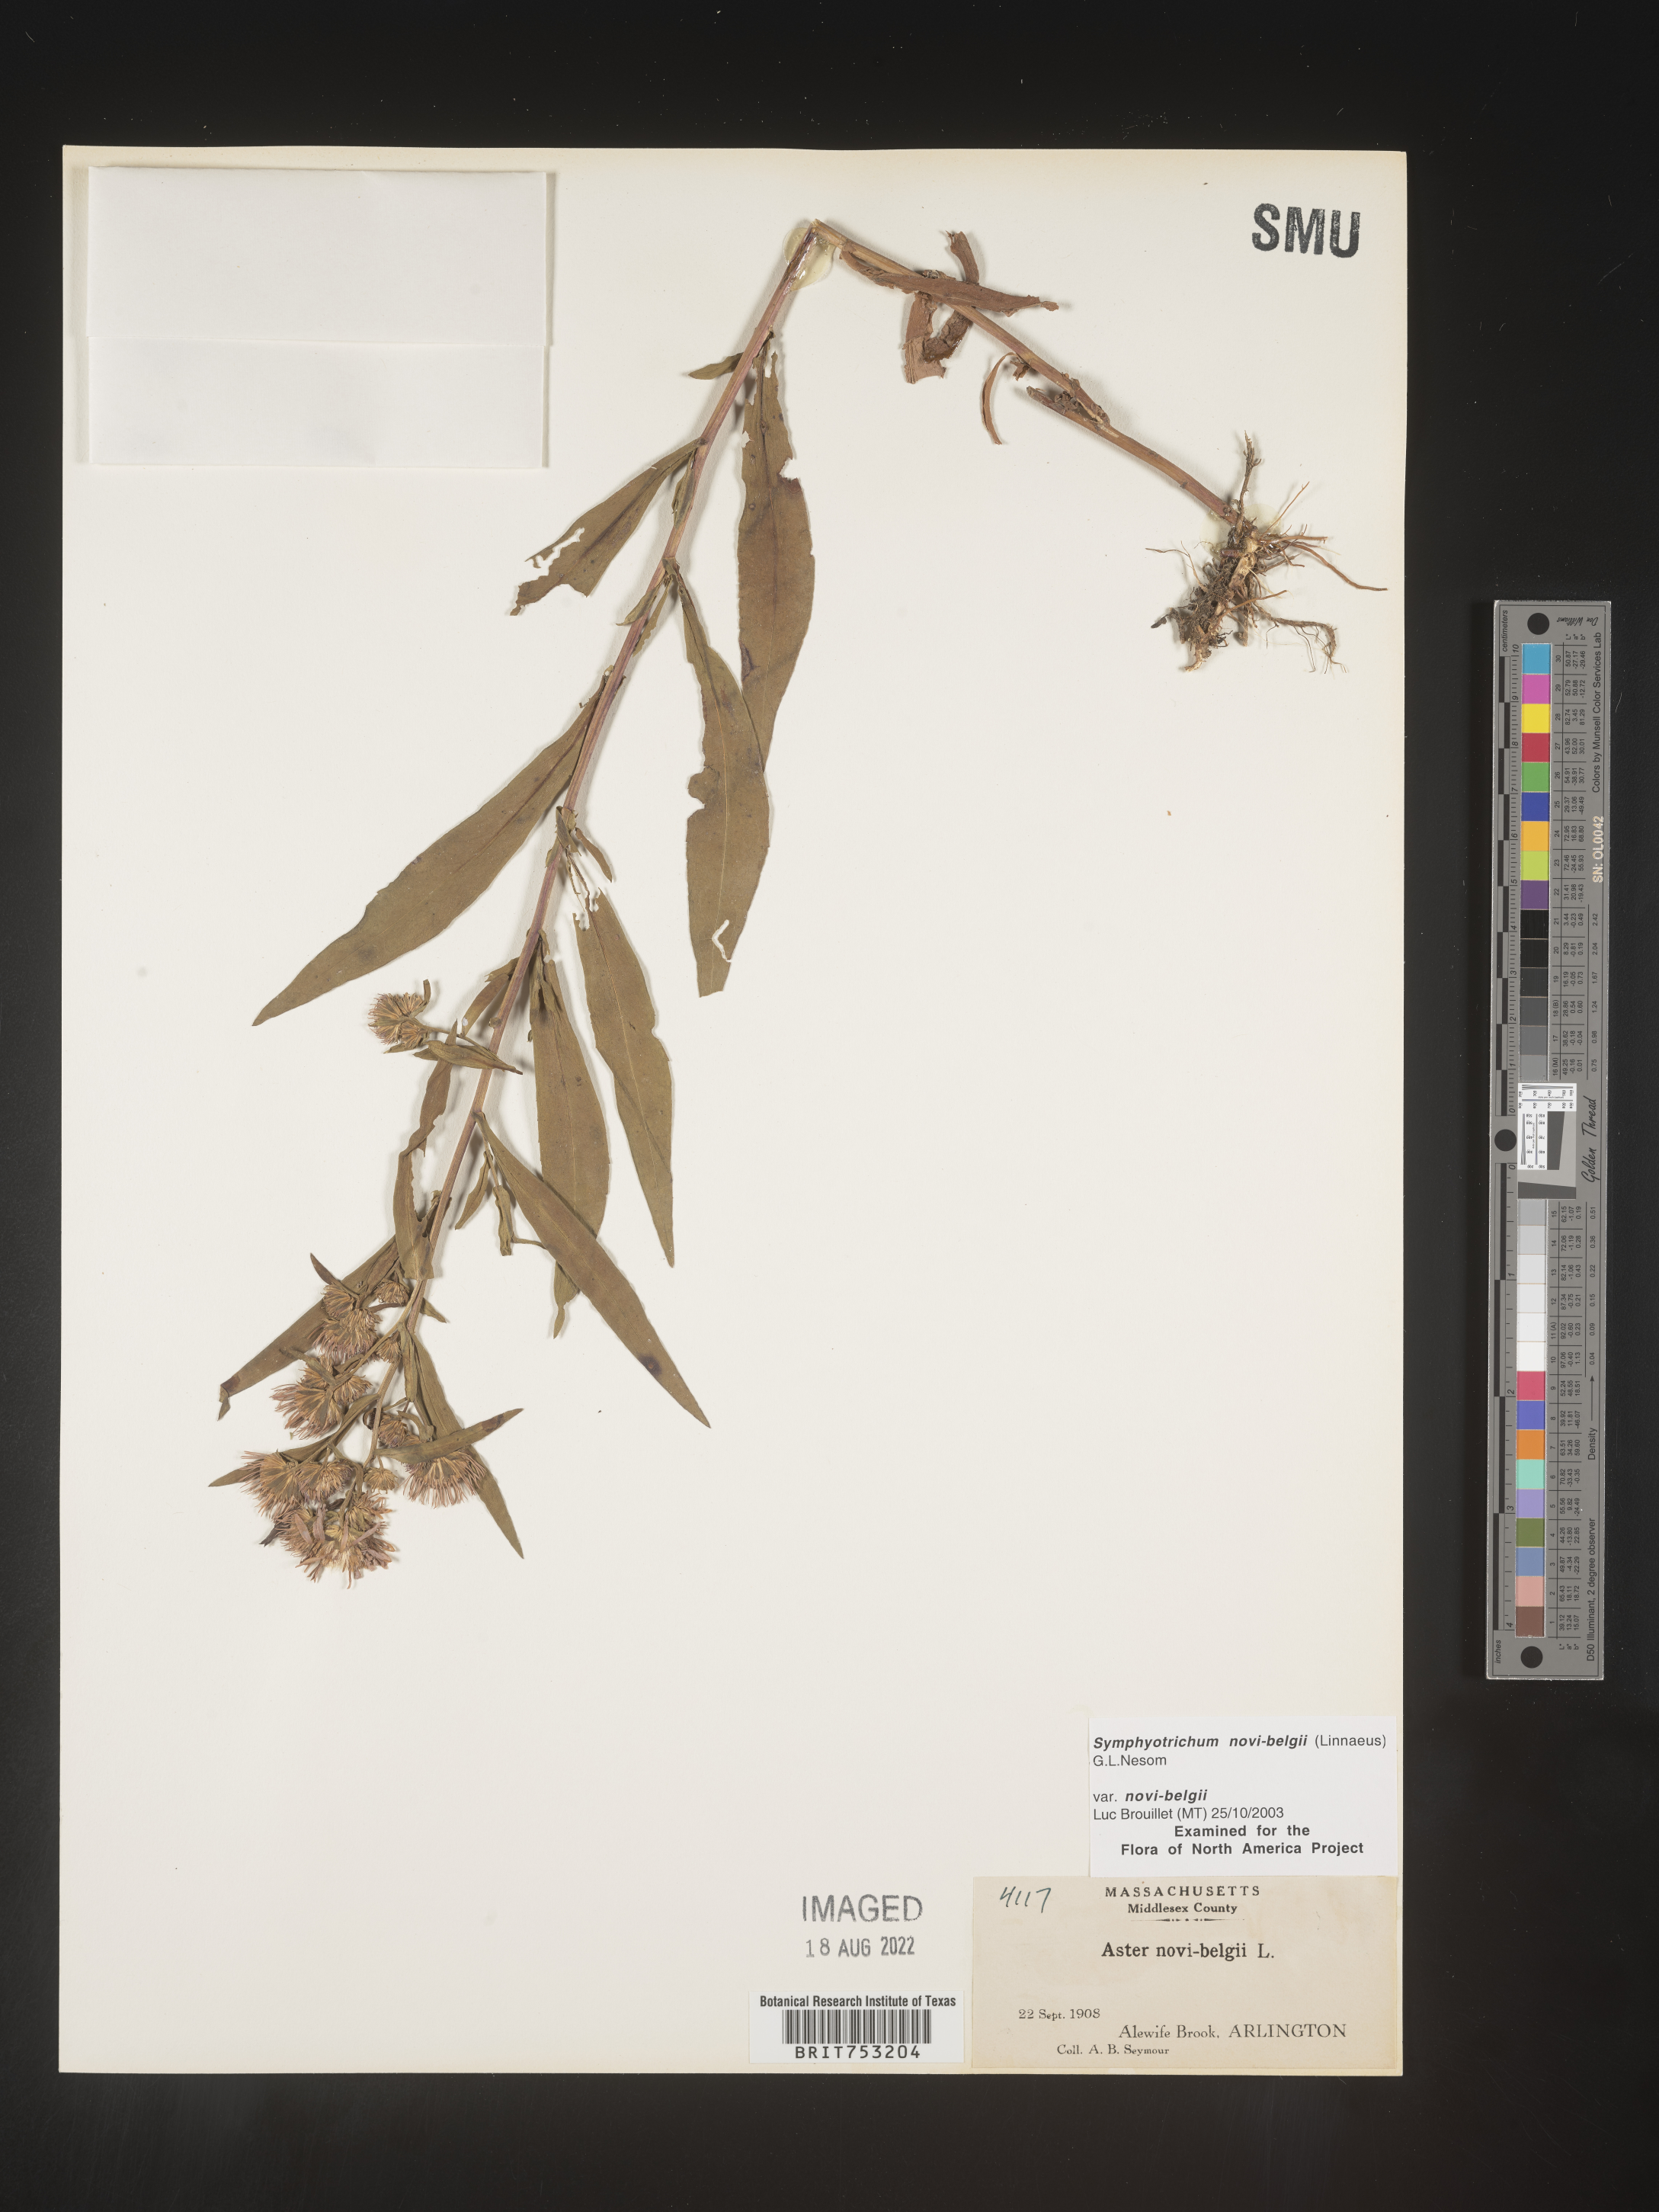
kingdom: Plantae
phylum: Tracheophyta
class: Magnoliopsida
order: Asterales
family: Asteraceae
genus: Symphyotrichum
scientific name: Symphyotrichum novi-belgii
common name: Michaelmas daisy
